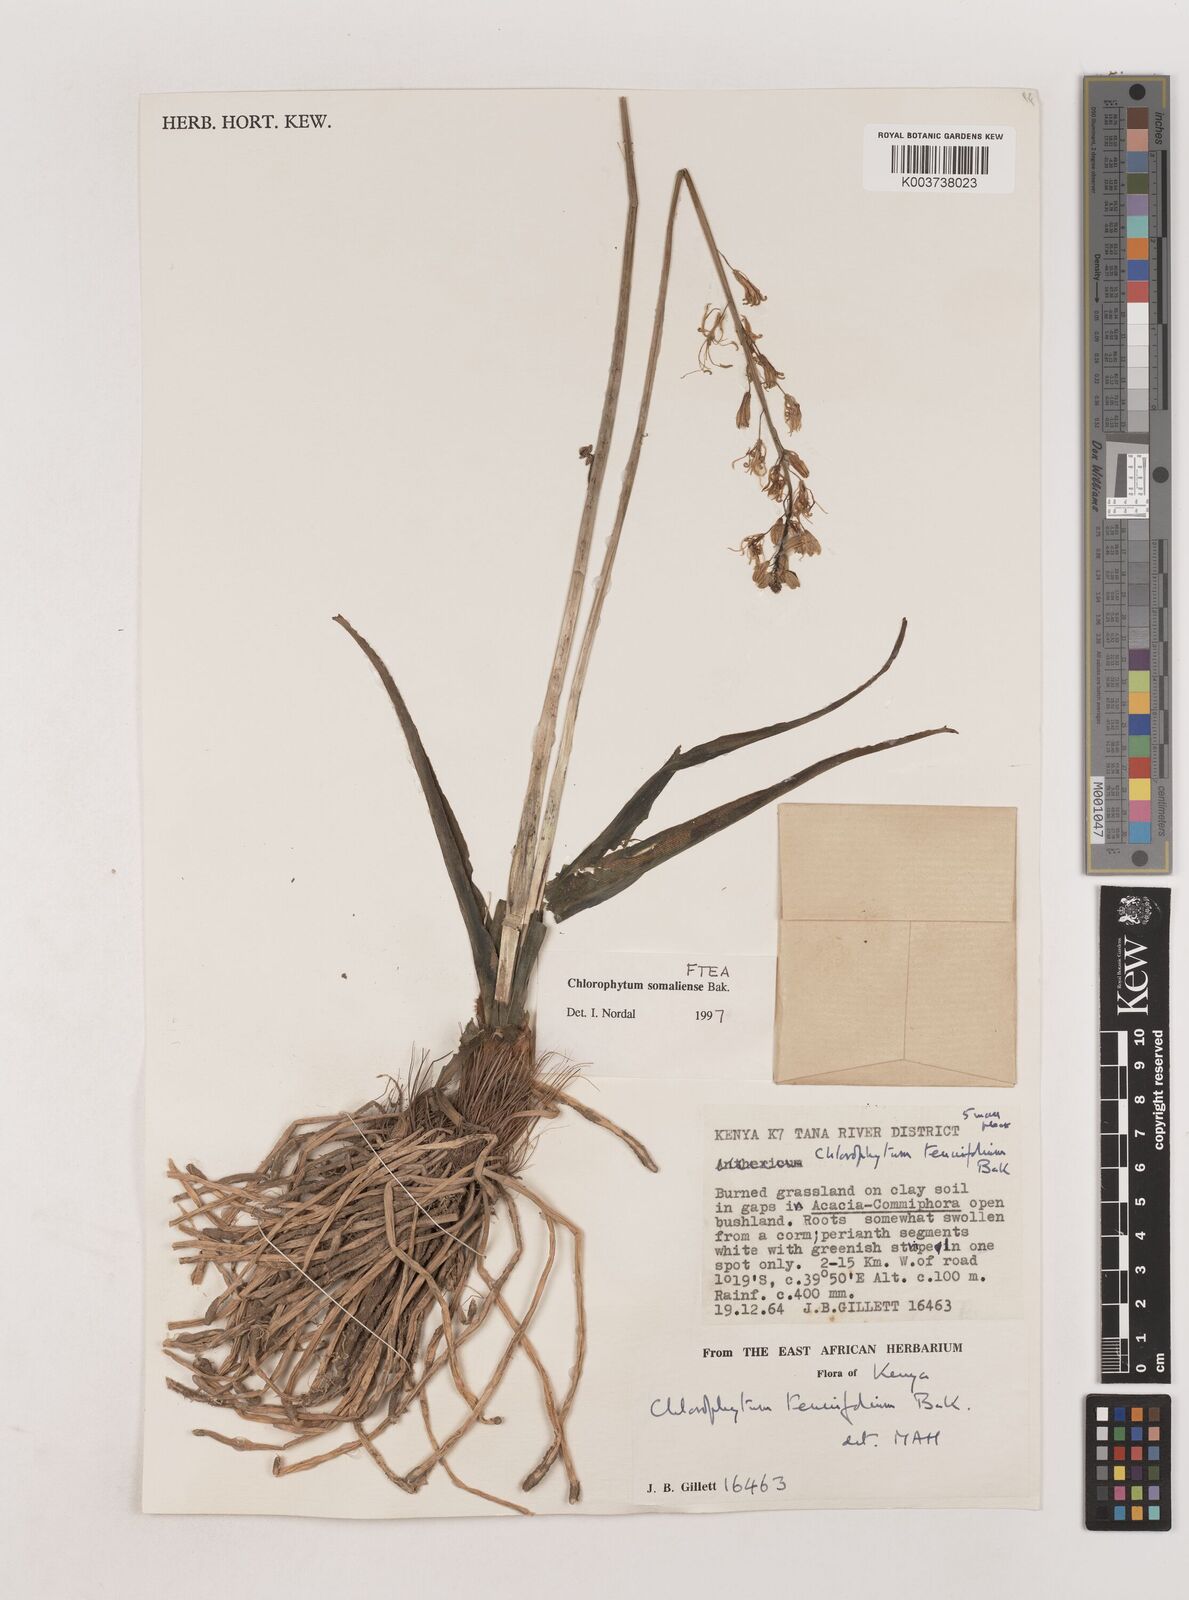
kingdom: Plantae
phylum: Tracheophyta
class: Liliopsida
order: Asparagales
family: Asparagaceae
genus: Chlorophytum
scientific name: Chlorophytum somaliense
